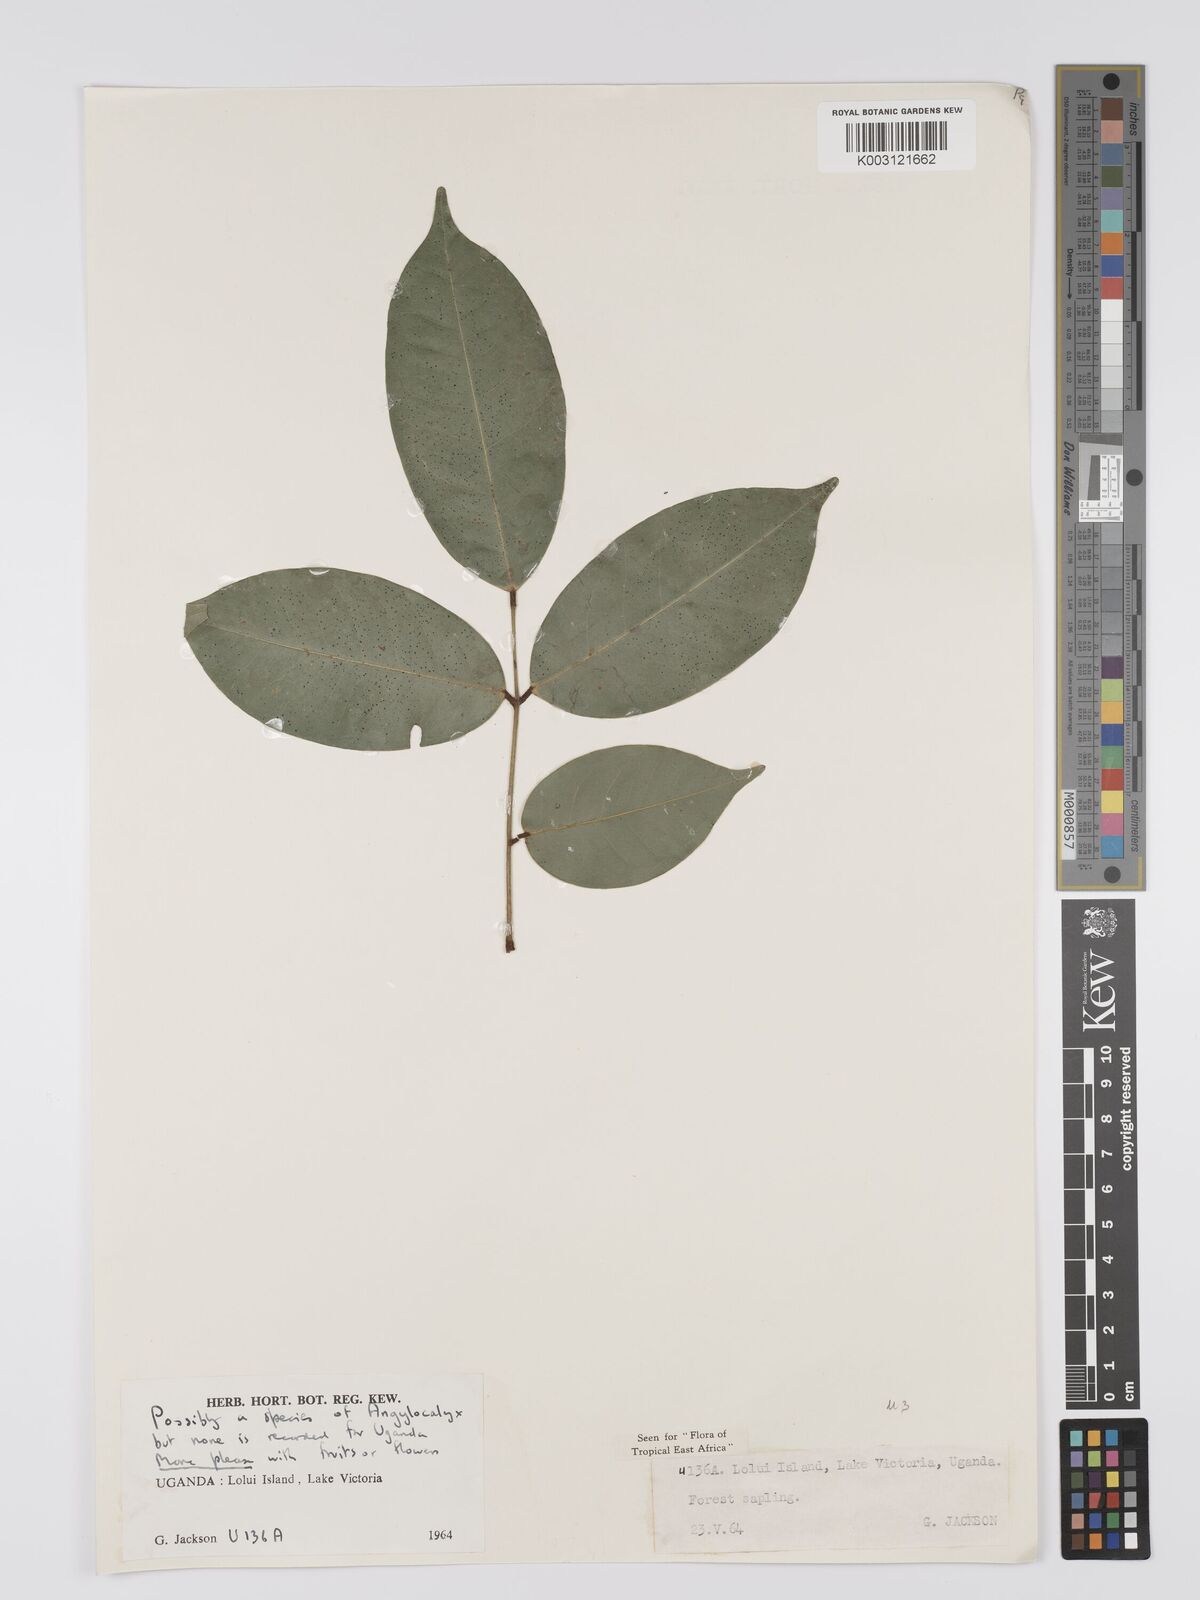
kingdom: Plantae
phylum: Tracheophyta
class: Magnoliopsida
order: Fabales
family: Fabaceae
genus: Angylocalyx
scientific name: Angylocalyx
